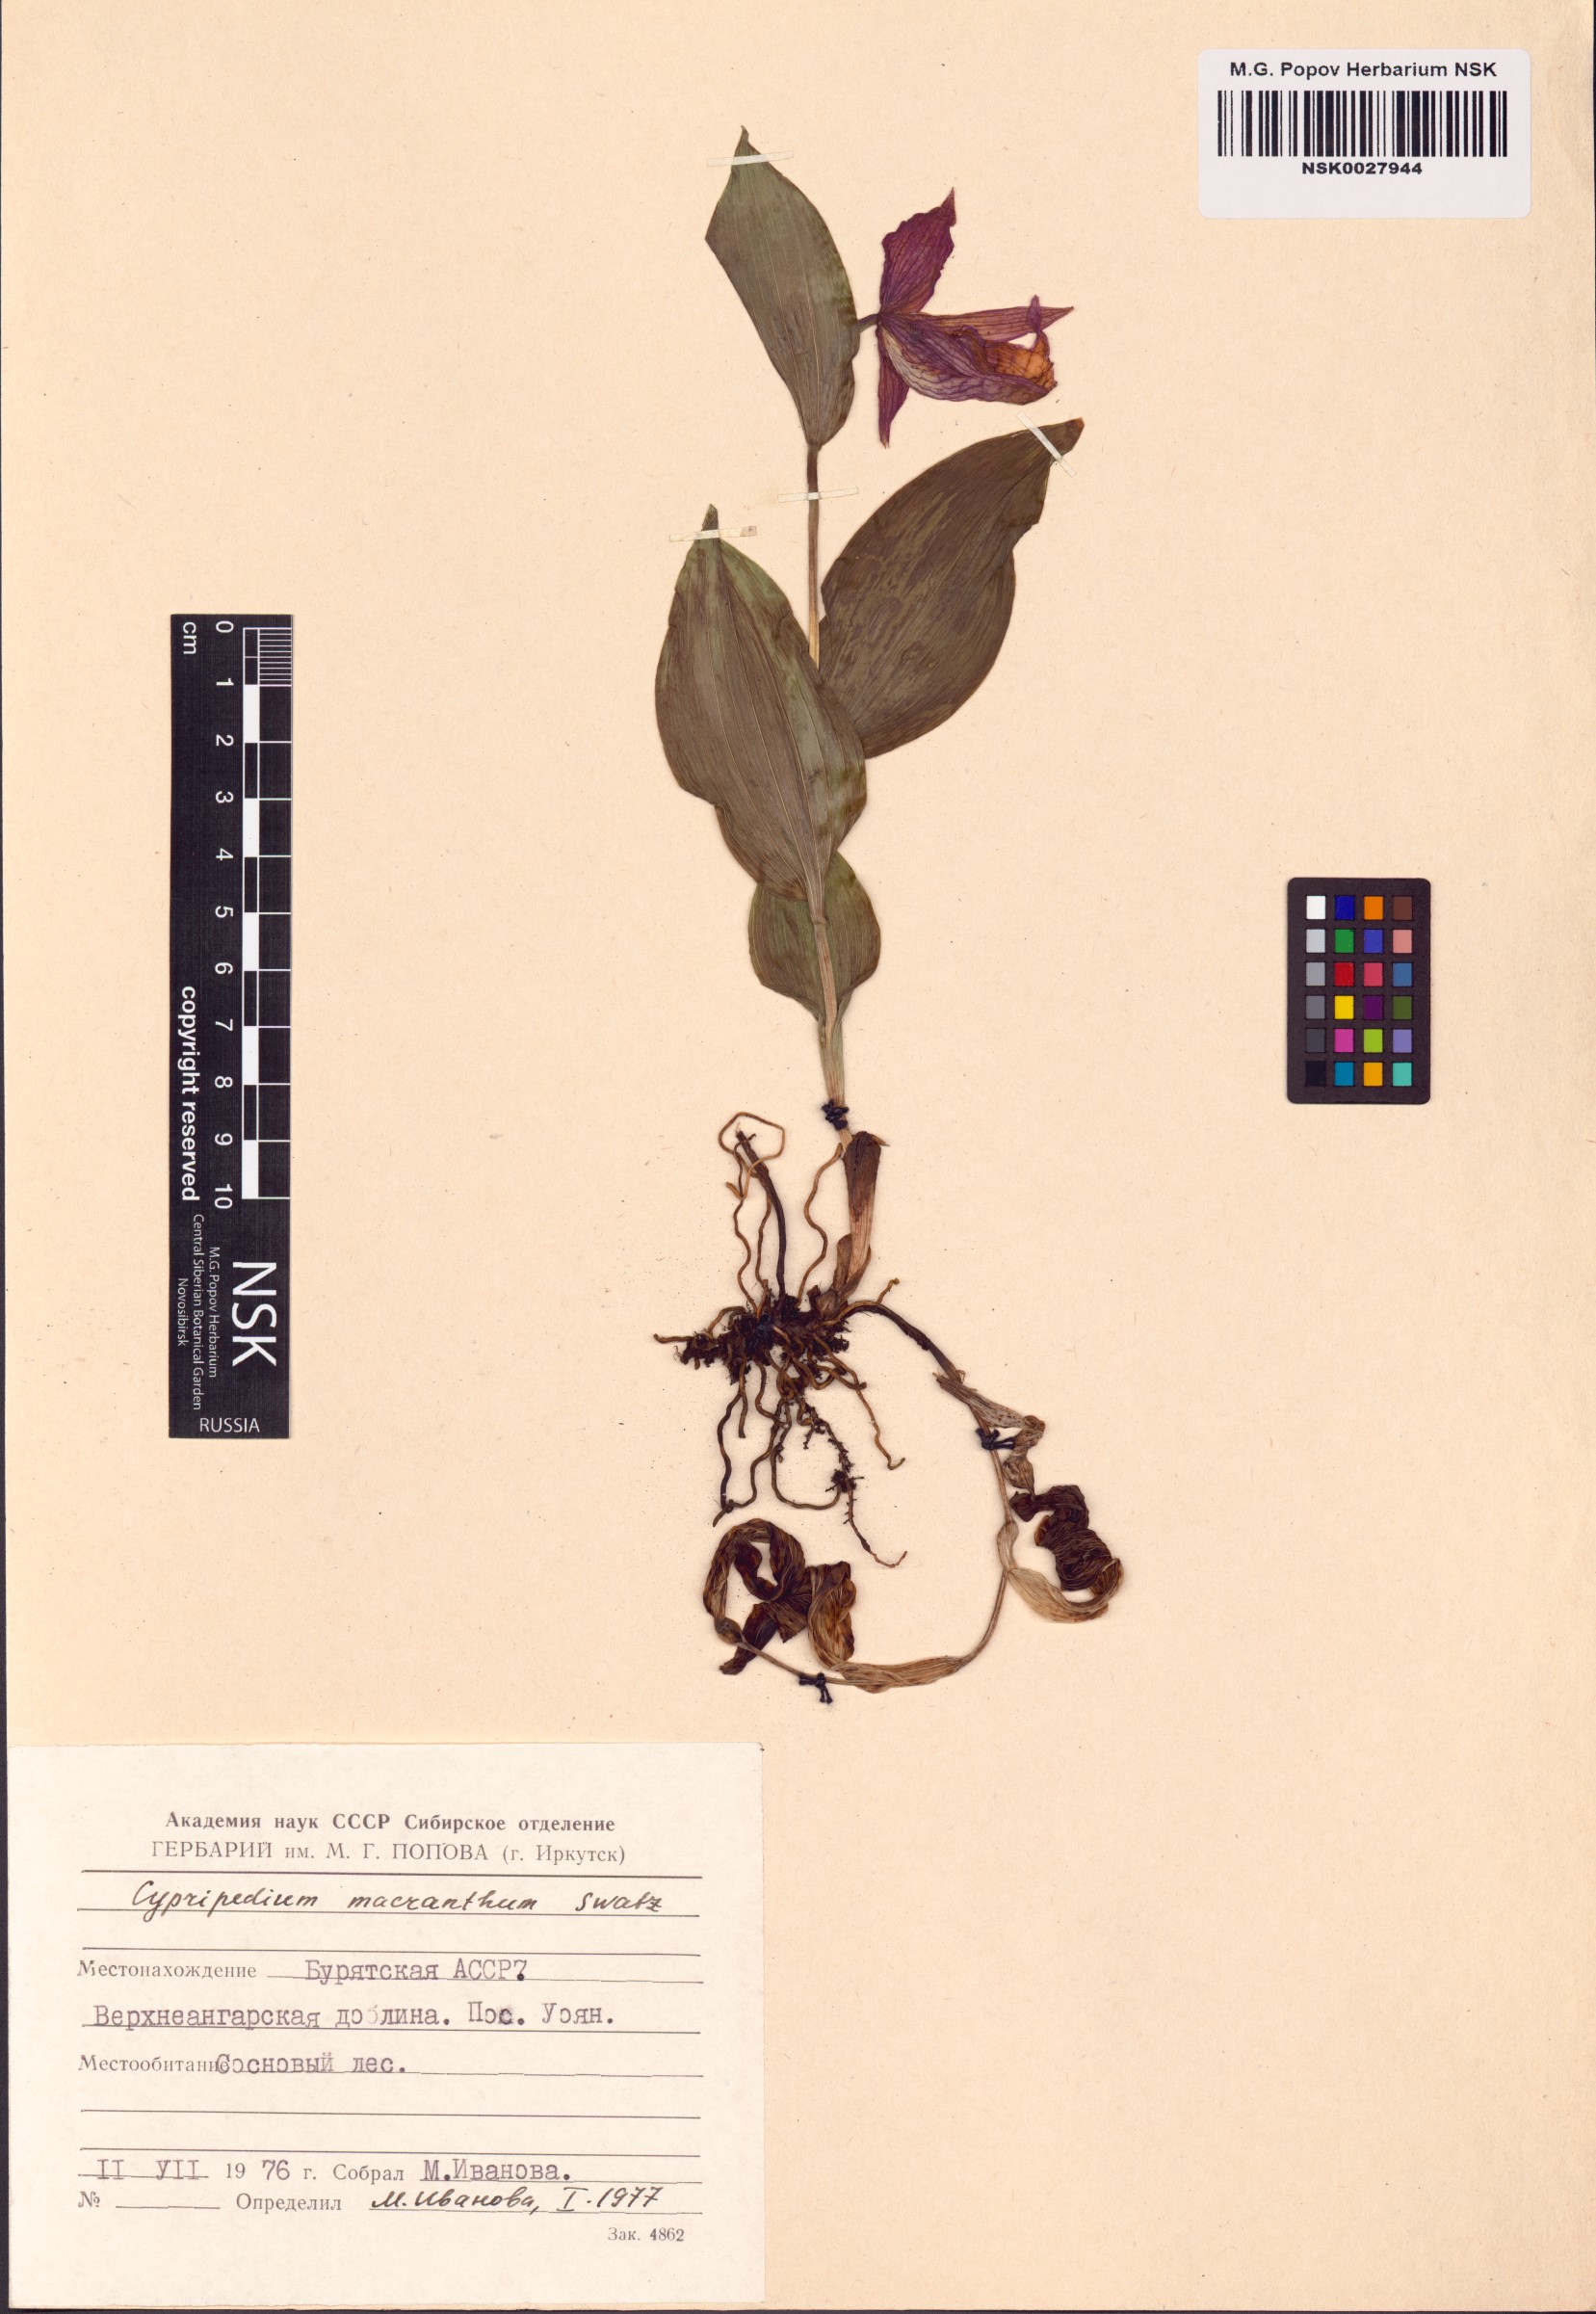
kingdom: Plantae
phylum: Tracheophyta
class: Liliopsida
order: Asparagales
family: Orchidaceae
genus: Cypripedium
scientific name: Cypripedium macranthos
